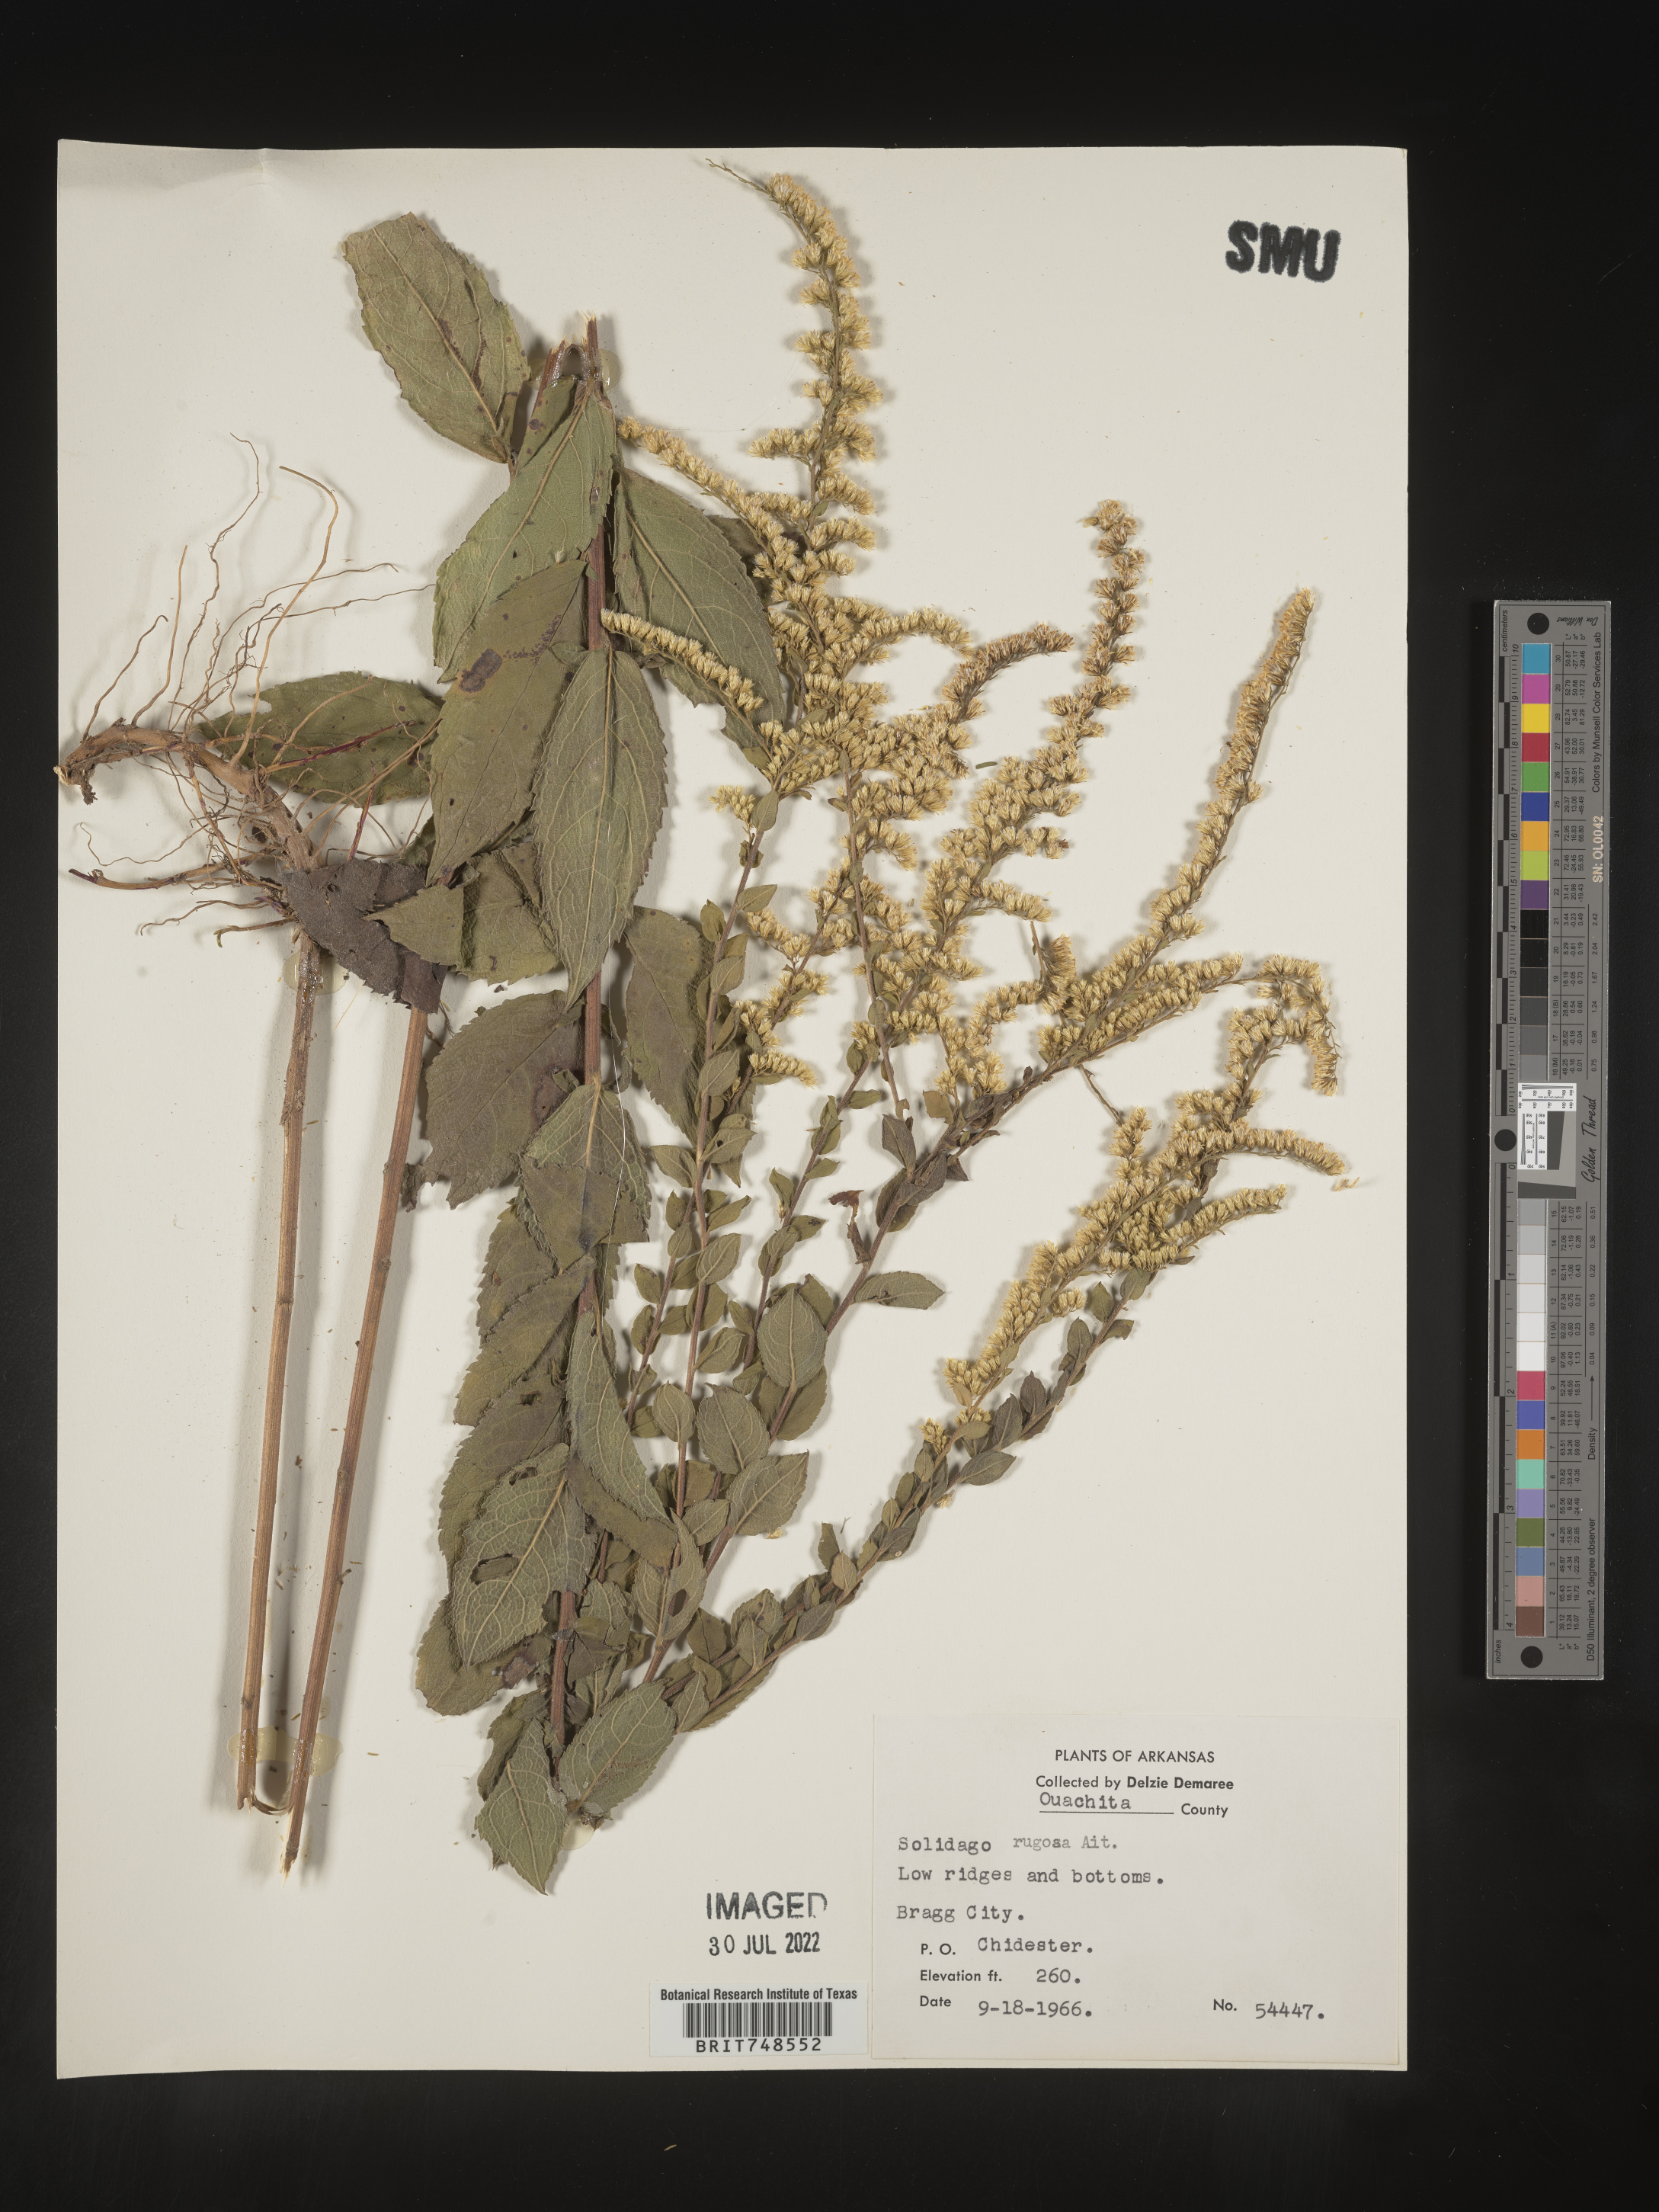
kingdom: Plantae
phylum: Tracheophyta
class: Magnoliopsida
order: Asterales
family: Asteraceae
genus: Solidago
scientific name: Solidago rugosa
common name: Rough-stemmed goldenrod
